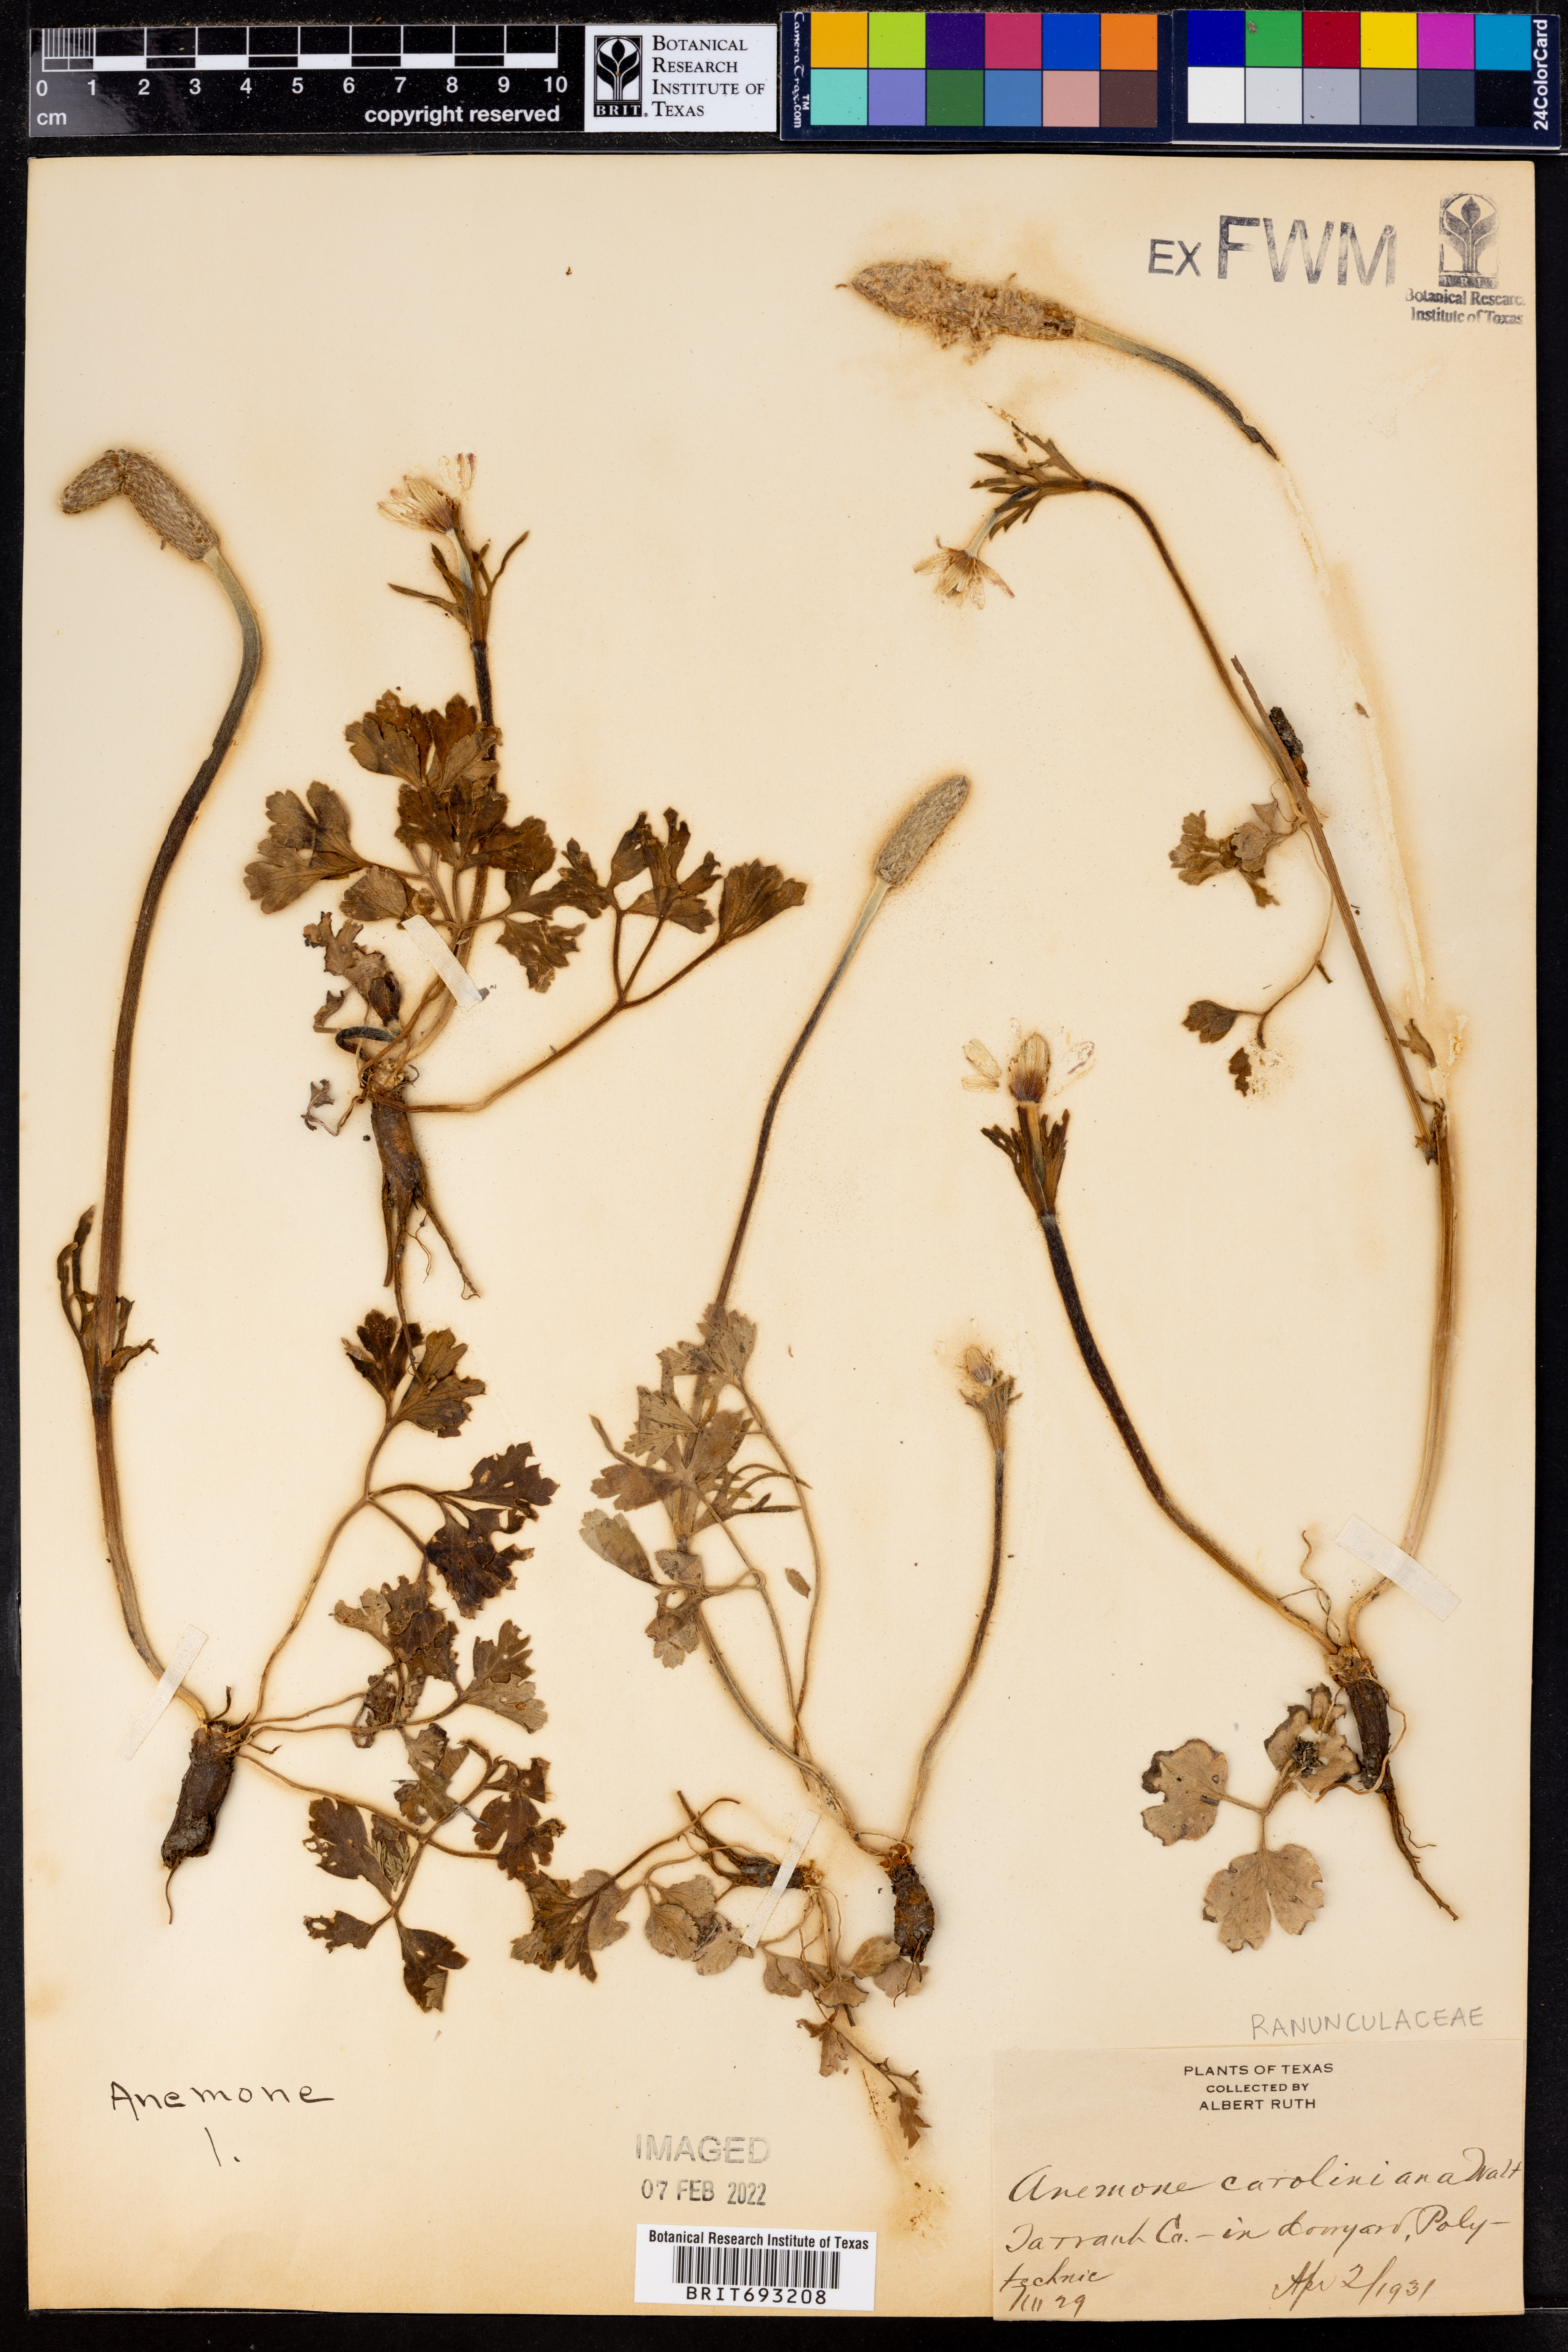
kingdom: Plantae
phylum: Tracheophyta
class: Magnoliopsida
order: Ranunculales
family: Ranunculaceae
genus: Anemone
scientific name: Anemone caroliniana
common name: Carolina anemone
